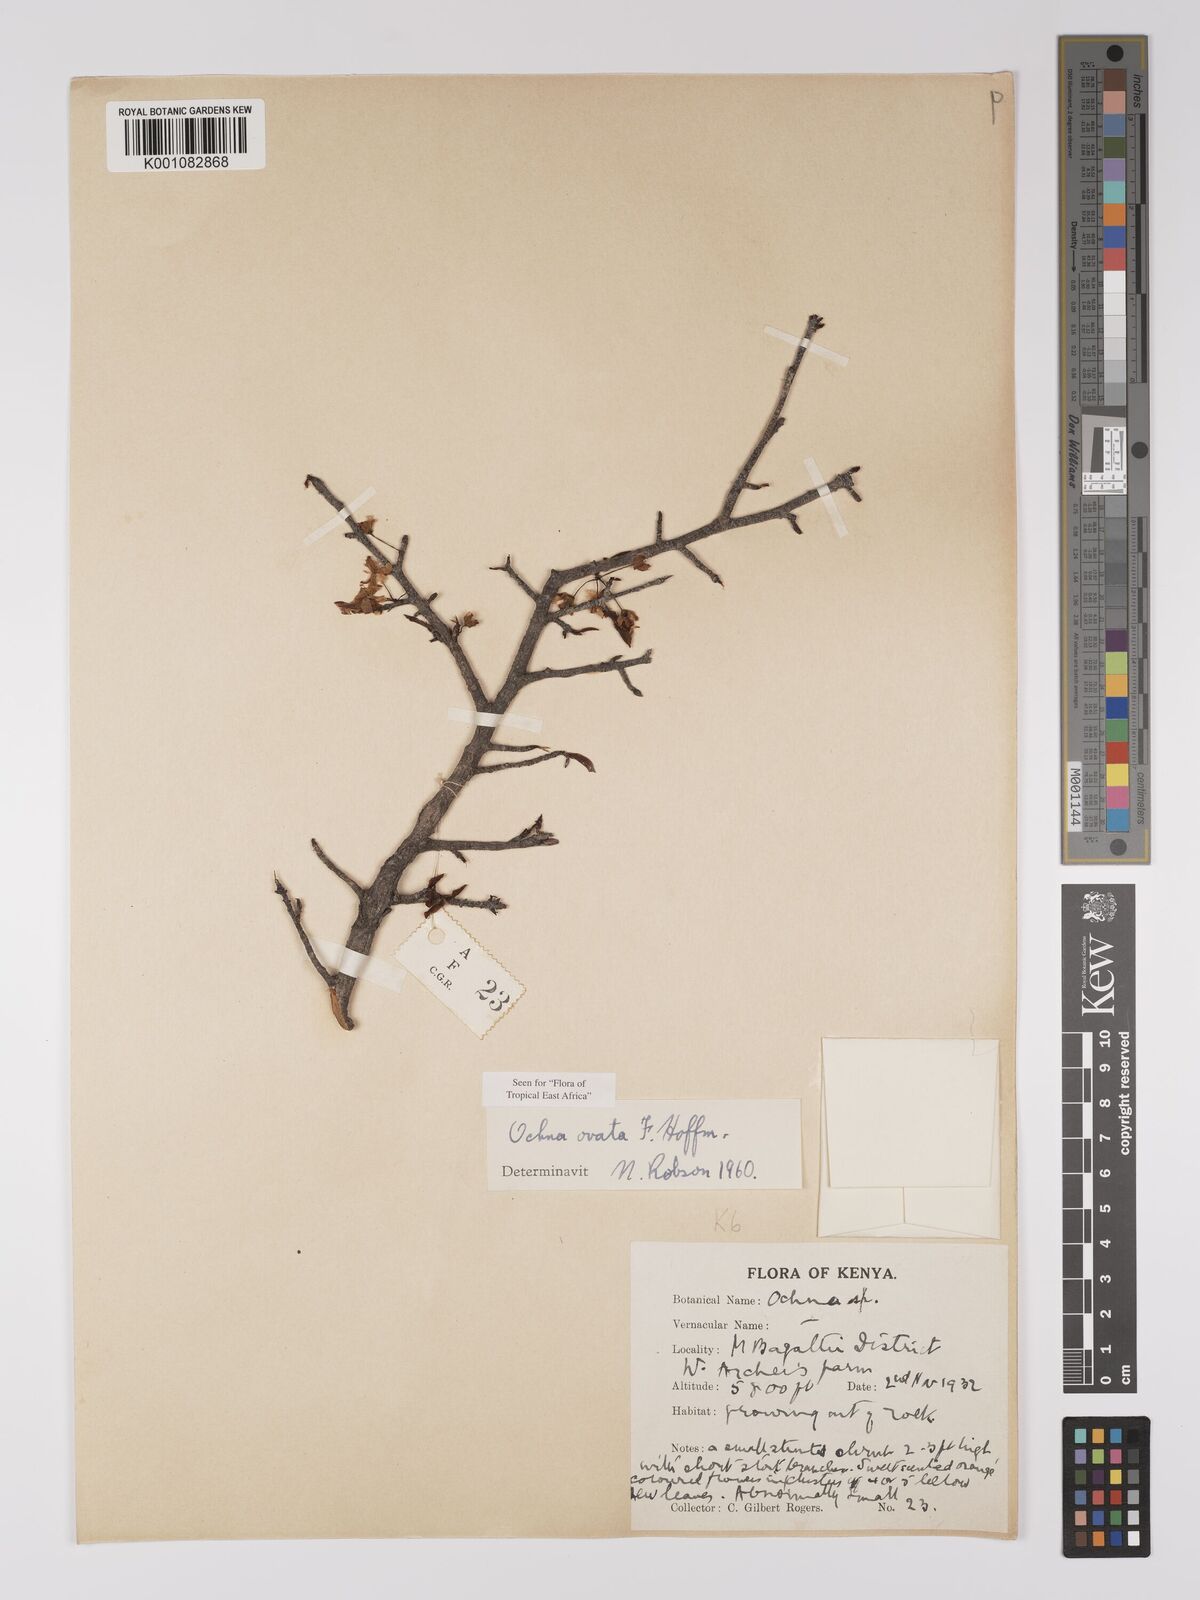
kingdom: Plantae
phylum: Tracheophyta
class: Magnoliopsida
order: Malpighiales
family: Ochnaceae
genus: Ochna
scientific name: Ochna ovata
